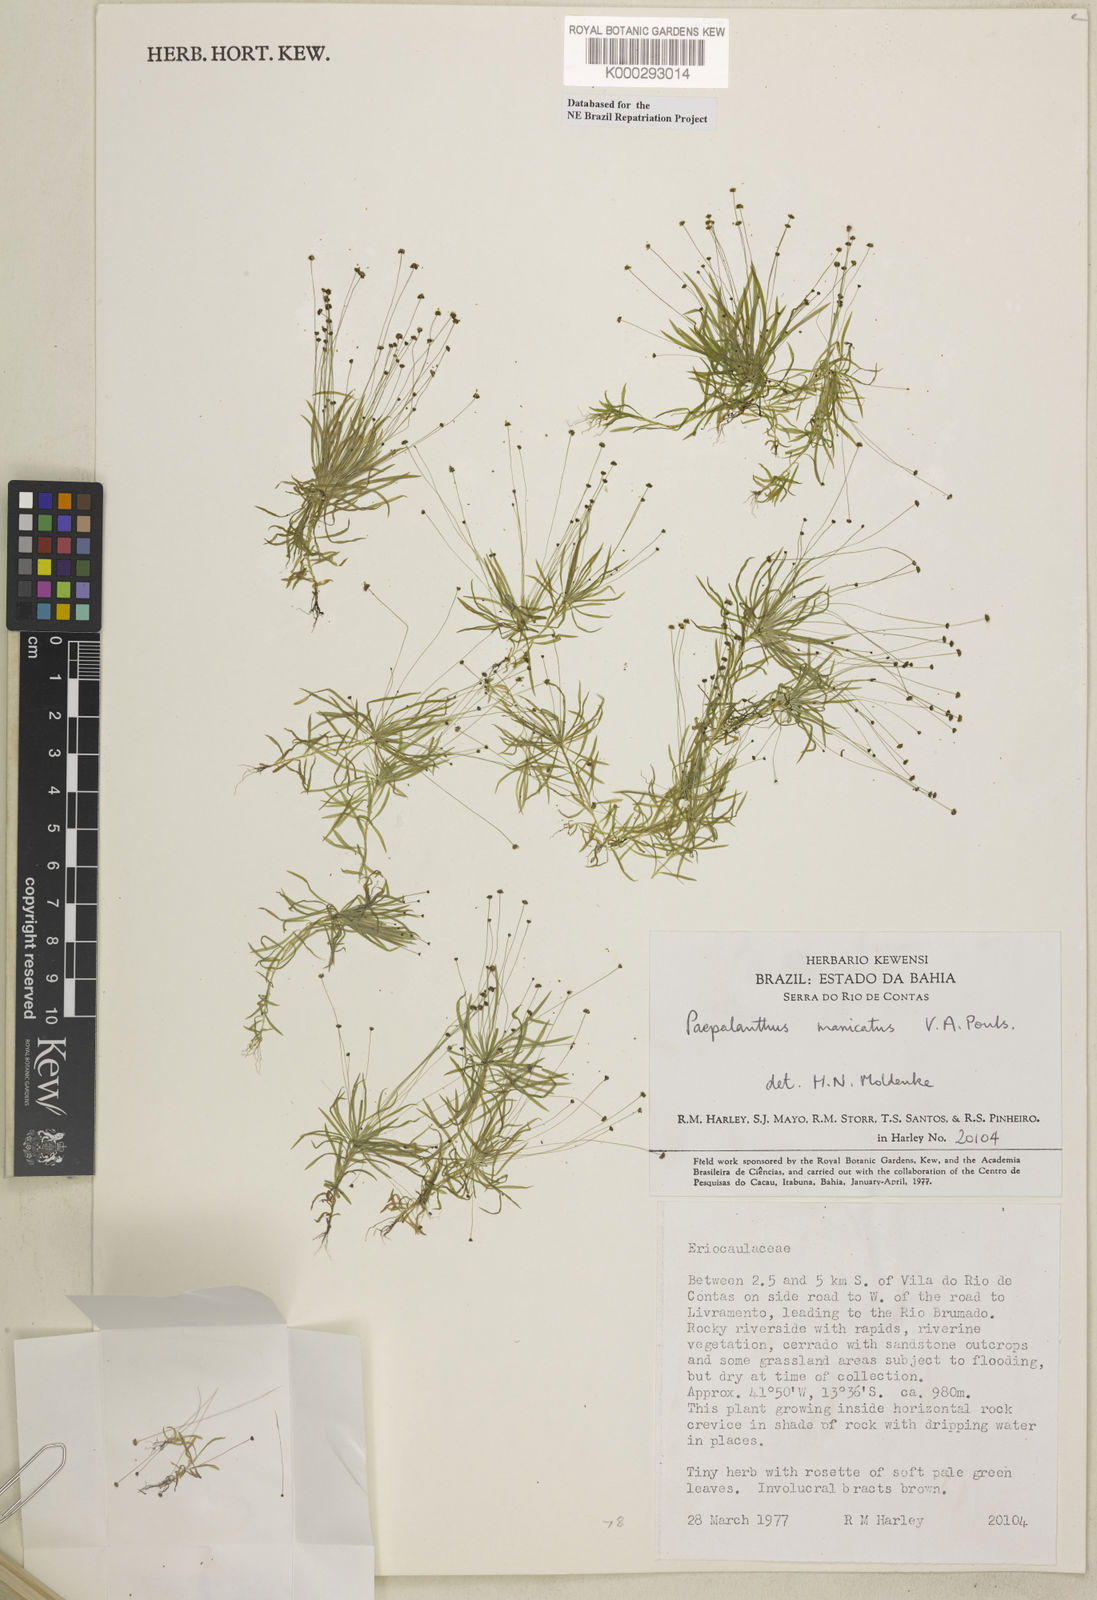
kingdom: Plantae
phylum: Tracheophyta
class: Liliopsida
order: Poales
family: Eriocaulaceae
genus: Paepalanthus
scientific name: Paepalanthus
